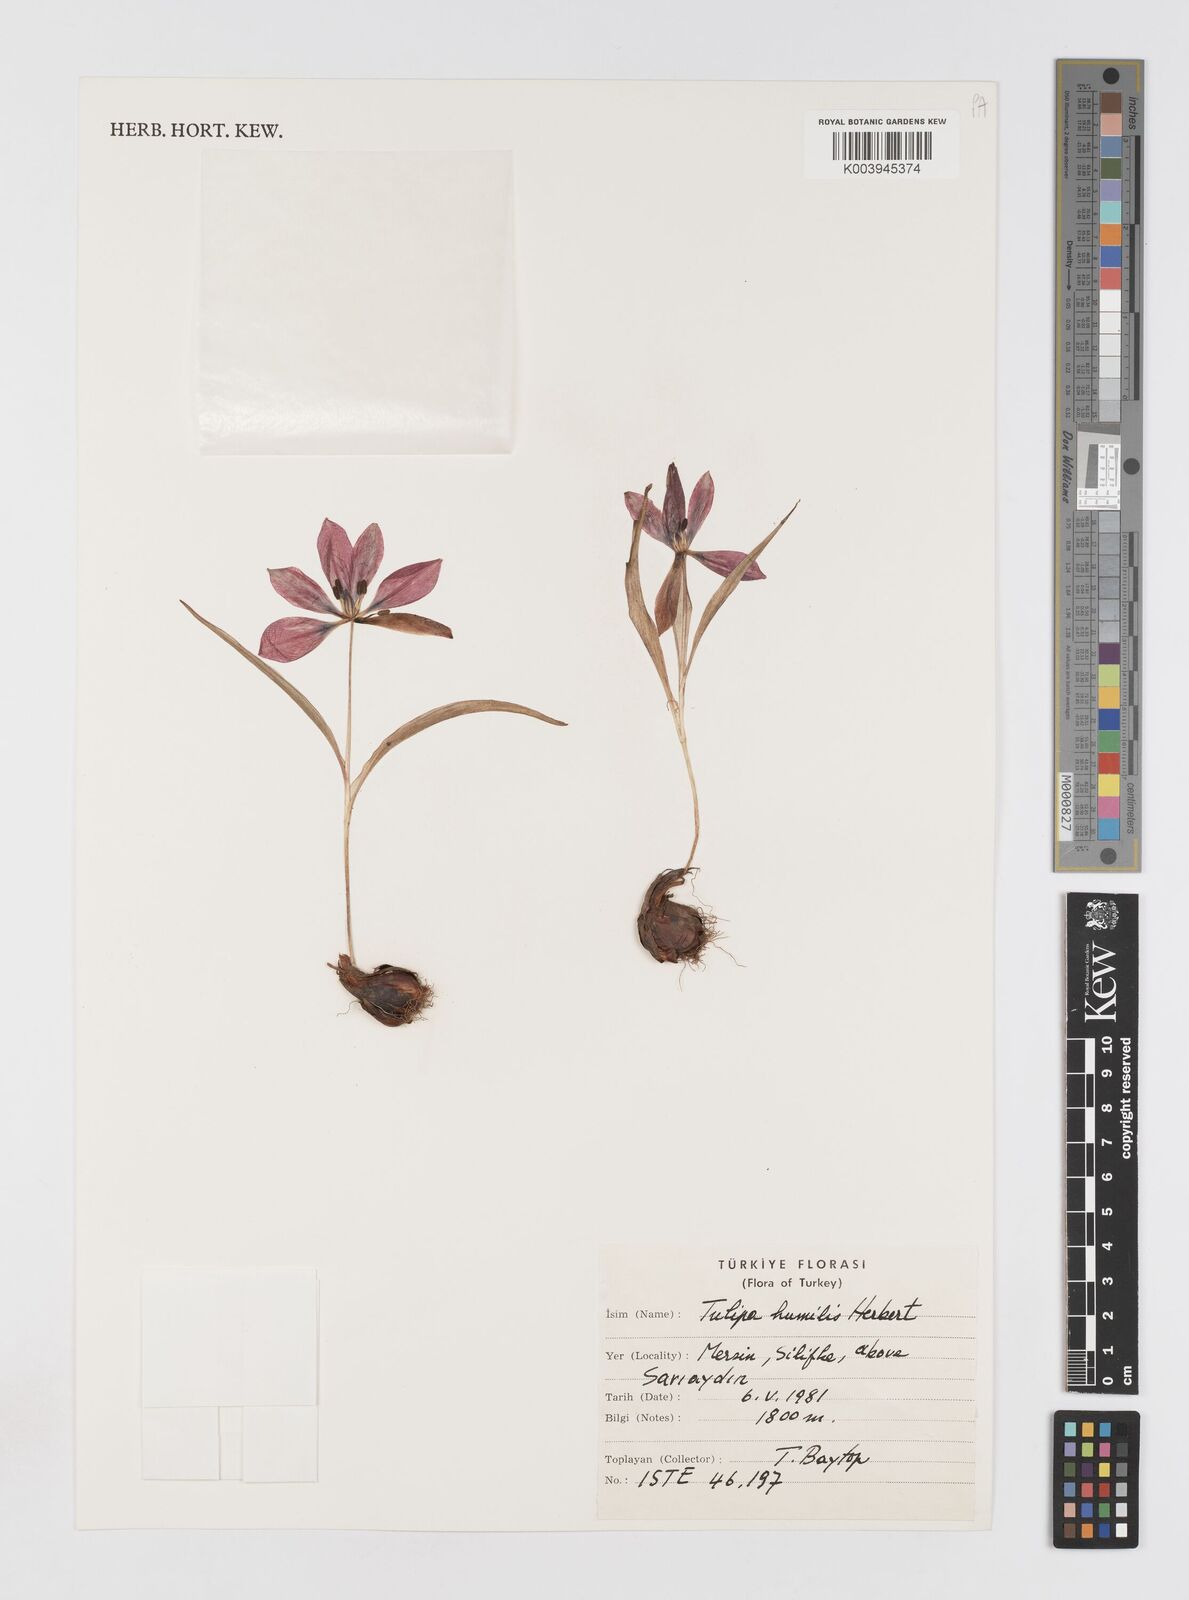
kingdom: Plantae
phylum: Tracheophyta
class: Liliopsida
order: Liliales
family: Liliaceae
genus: Tulipa
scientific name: Tulipa humilis
